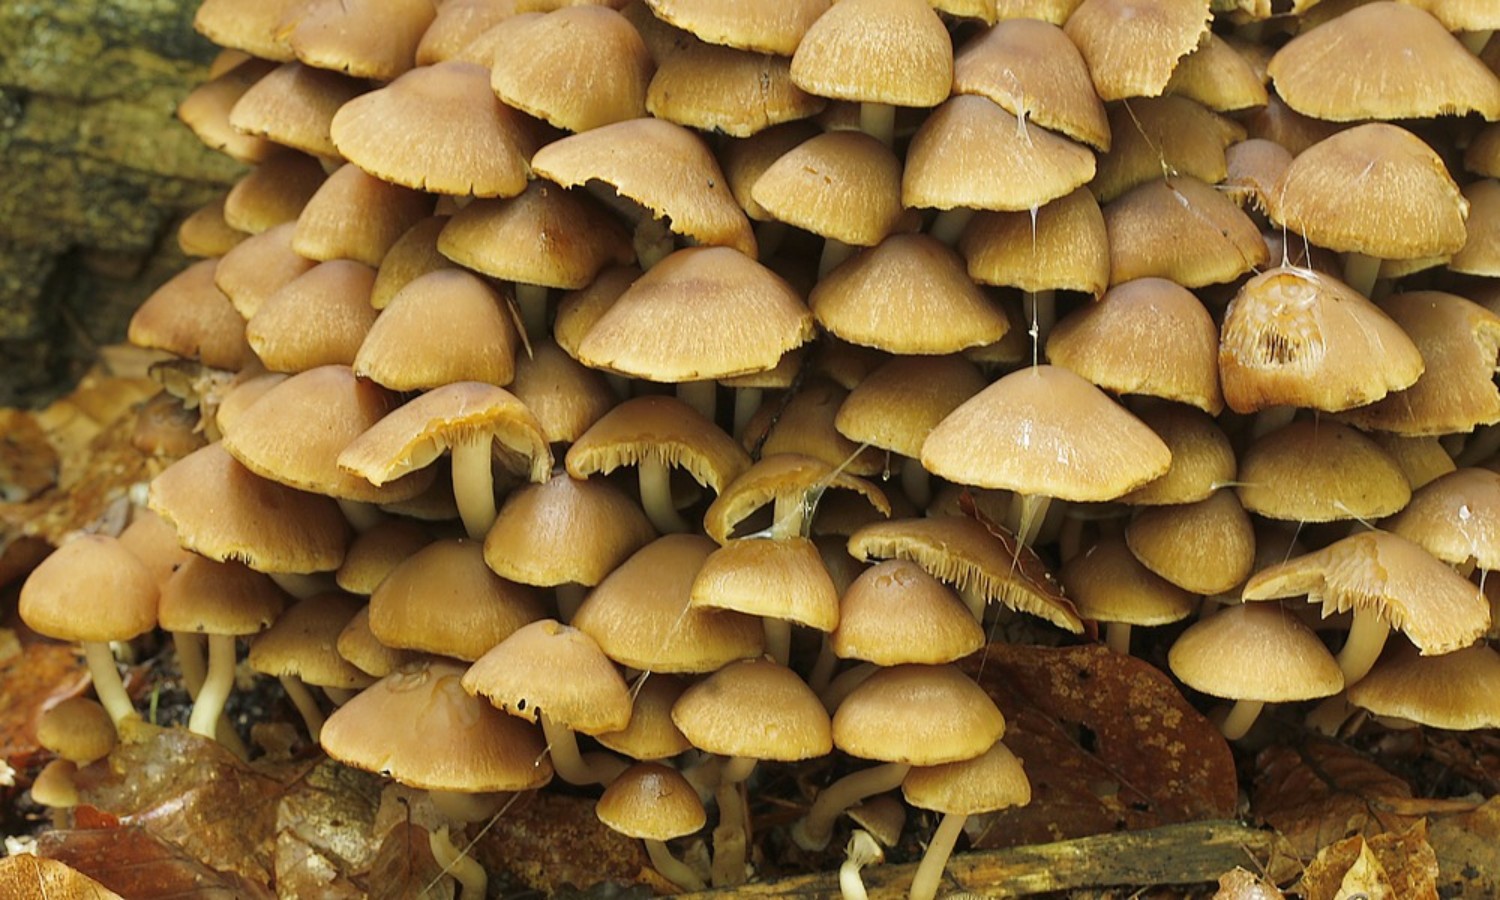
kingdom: Fungi
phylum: Basidiomycota
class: Agaricomycetes
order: Agaricales
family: Psathyrellaceae
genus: Psathyrella
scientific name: Psathyrella piluliformis
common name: lysstokket mørkhat
